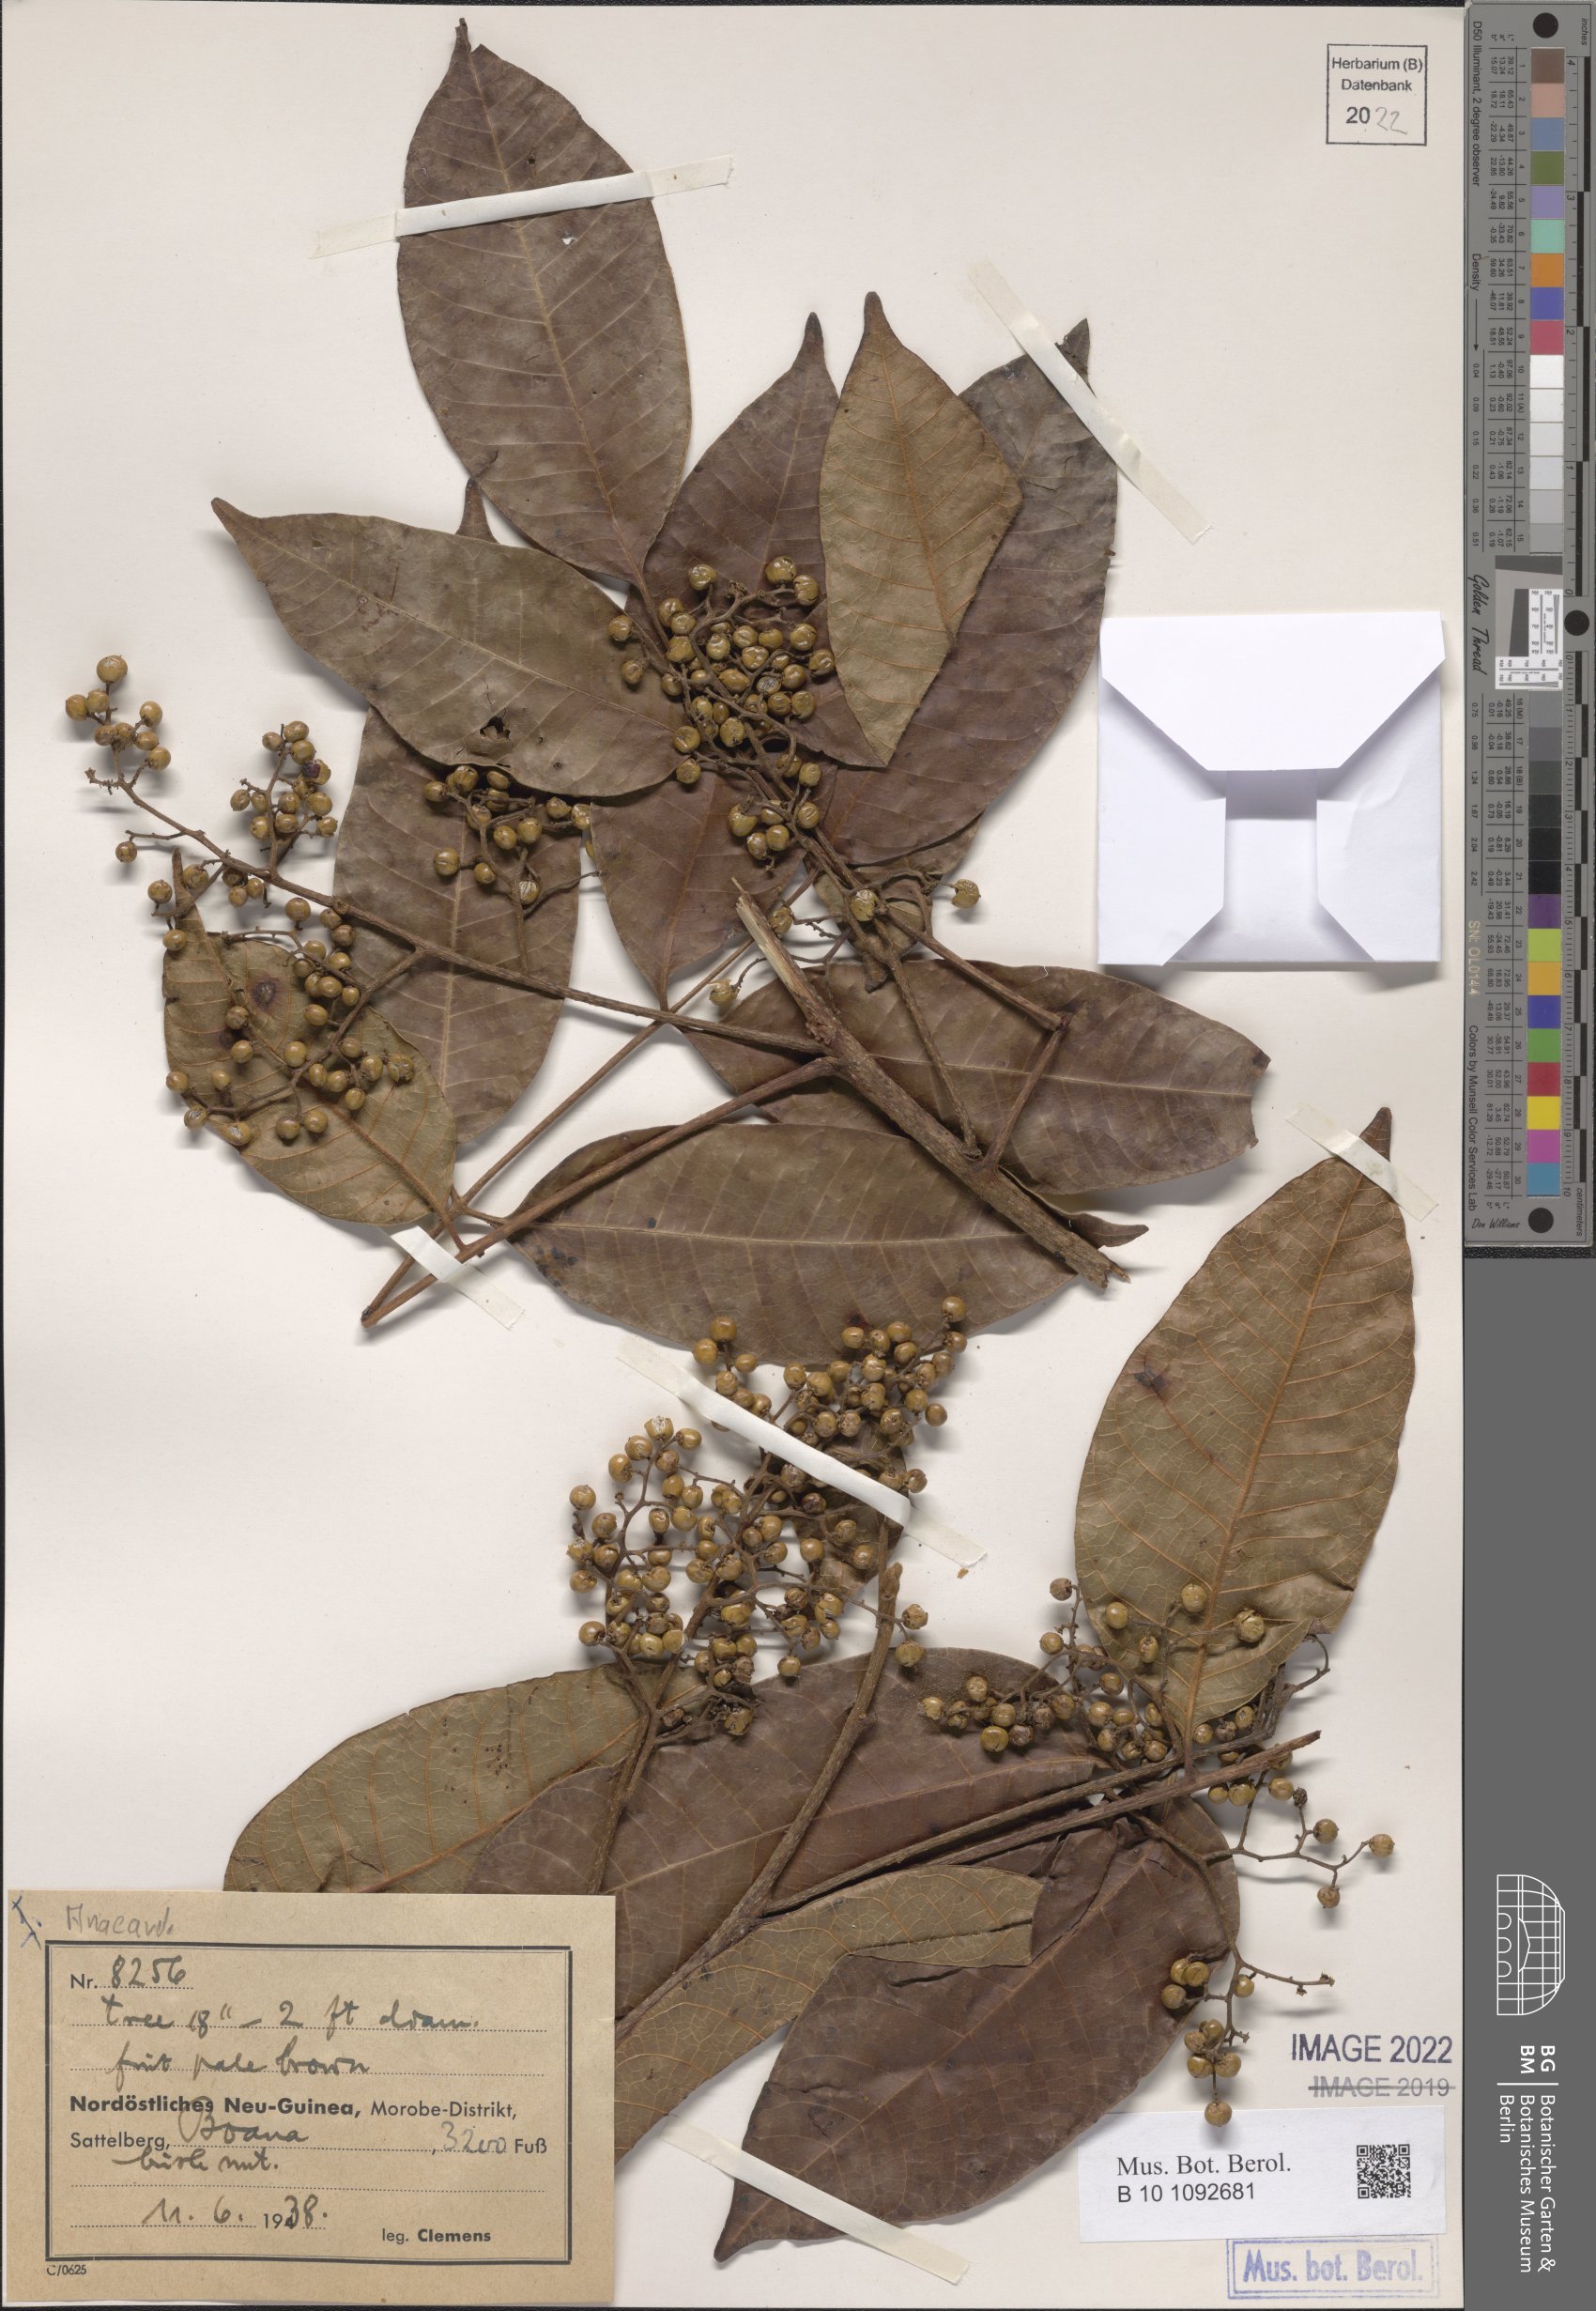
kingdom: Plantae
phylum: Tracheophyta
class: Magnoliopsida
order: Sapindales
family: Anacardiaceae
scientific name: Anacardiaceae
